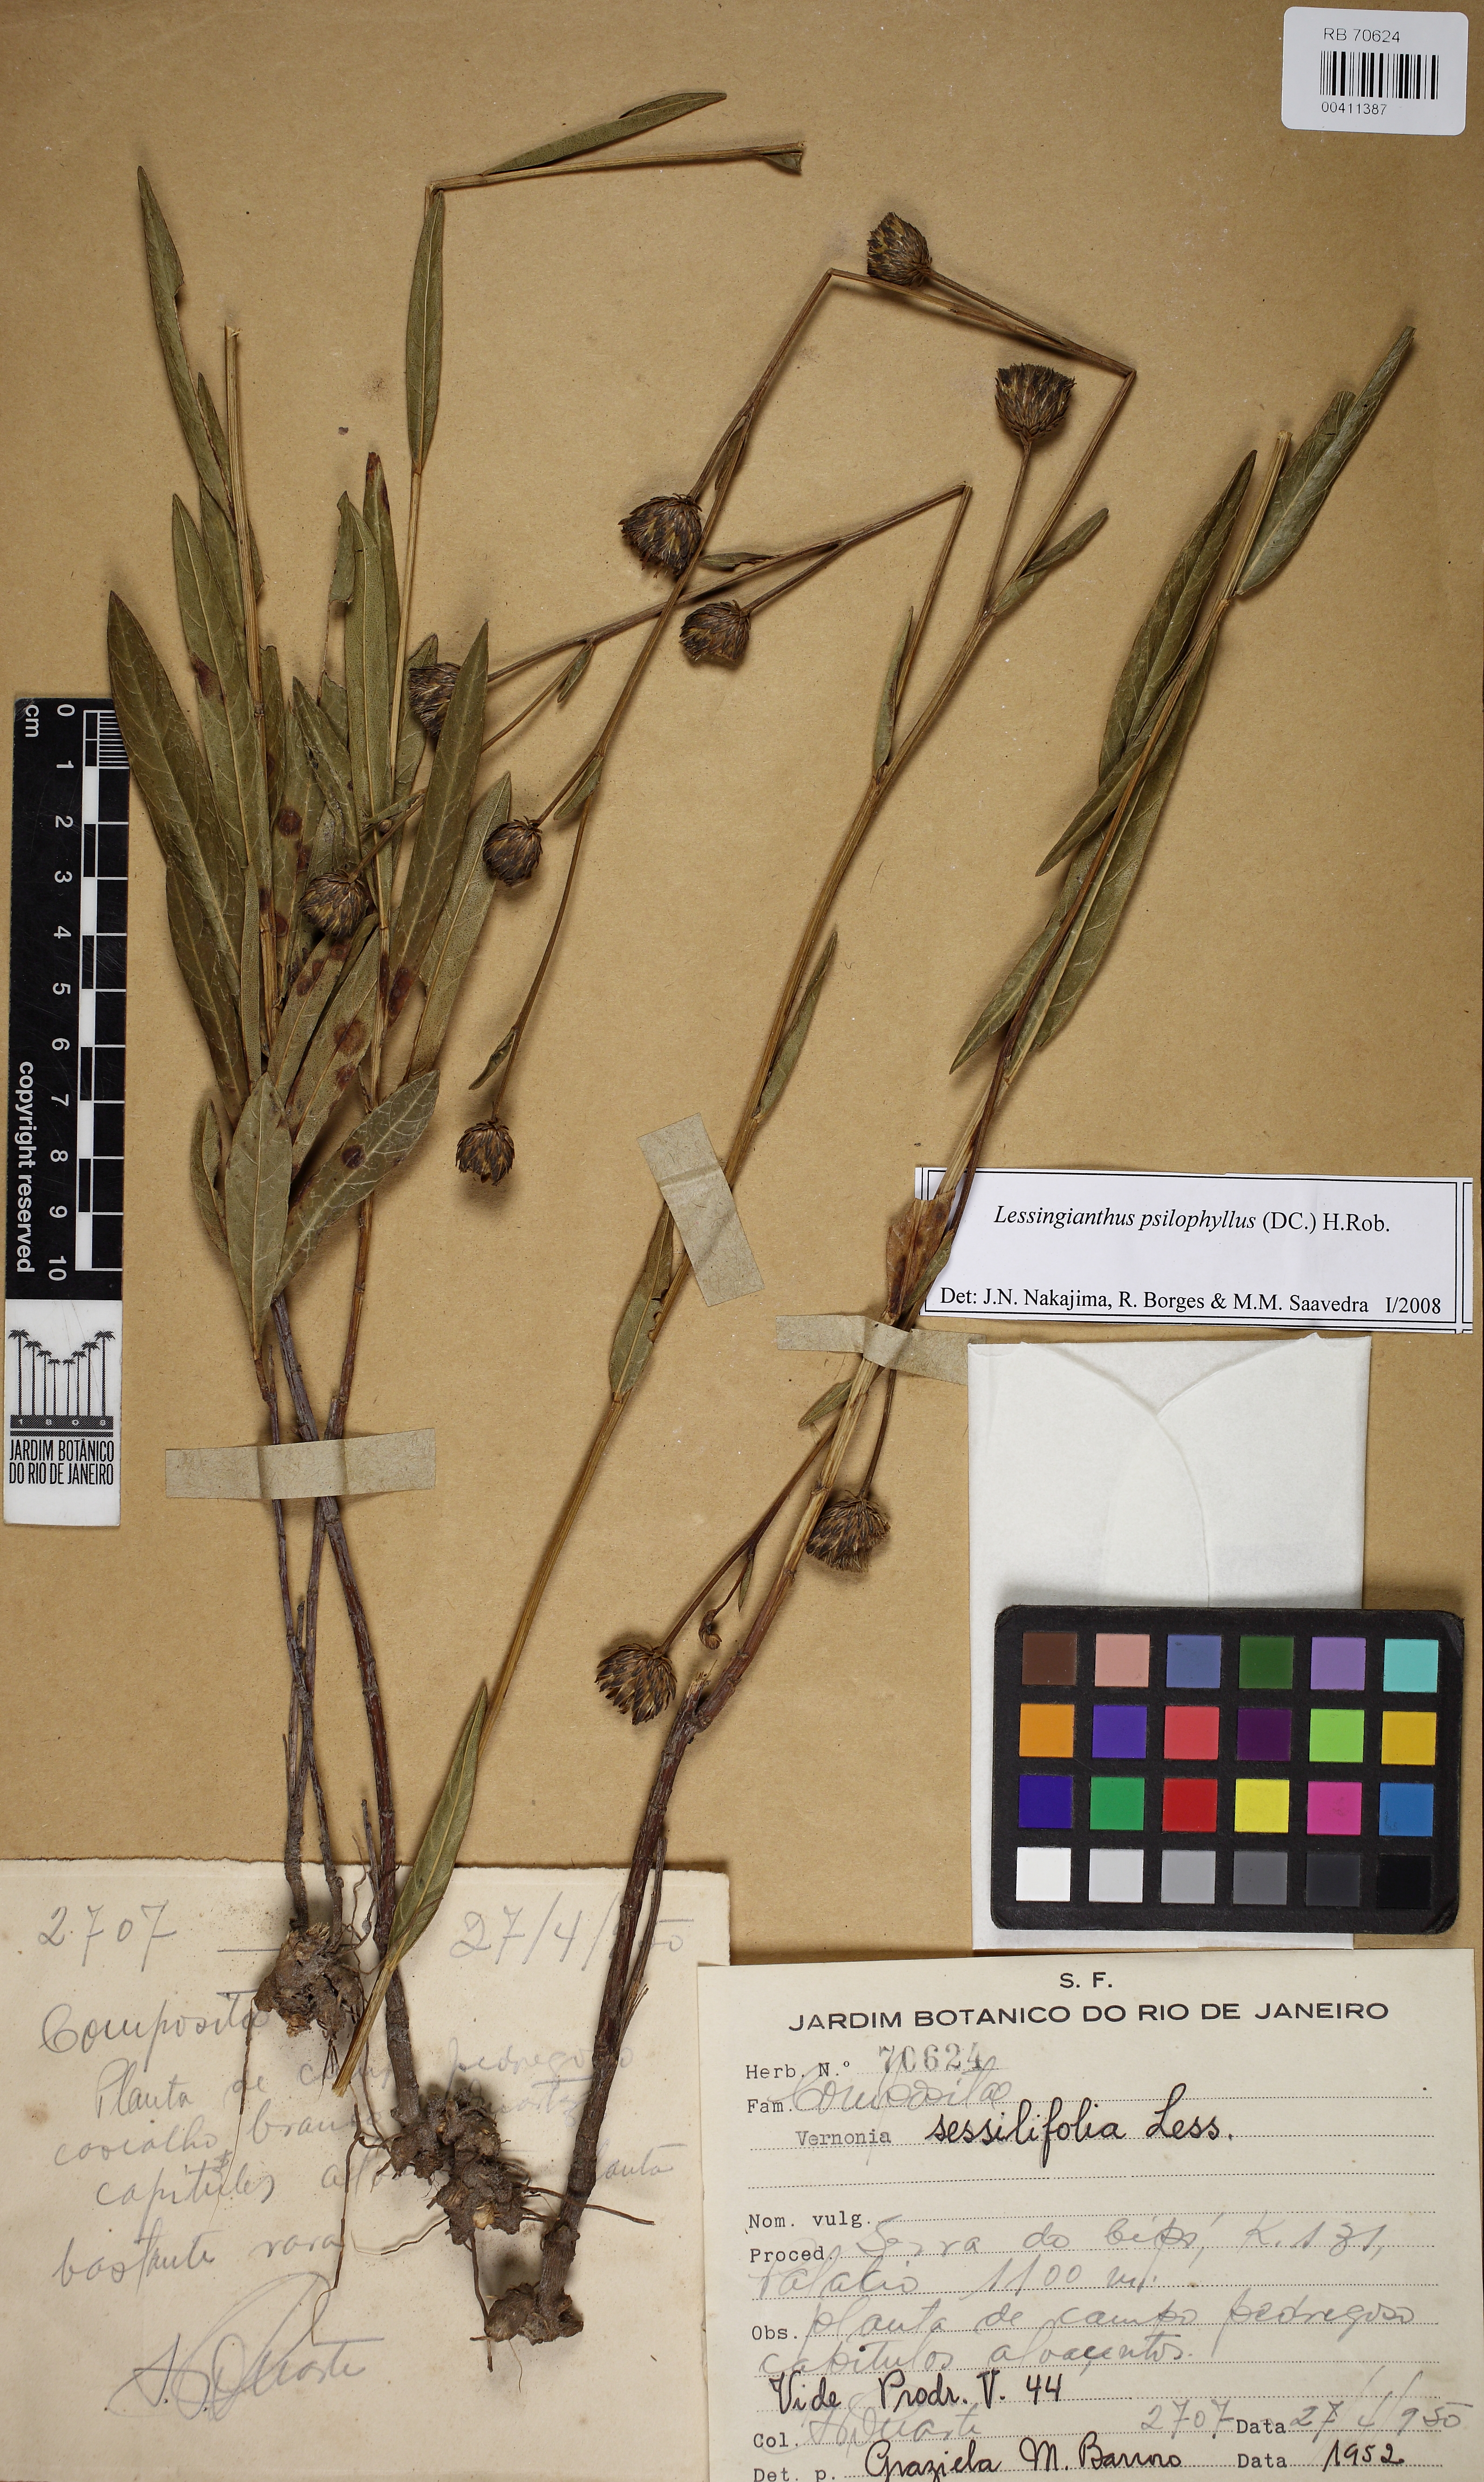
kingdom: Plantae
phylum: Tracheophyta
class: Magnoliopsida
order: Asterales
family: Asteraceae
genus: Lessingianthus
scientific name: Lessingianthus psilophyllus
